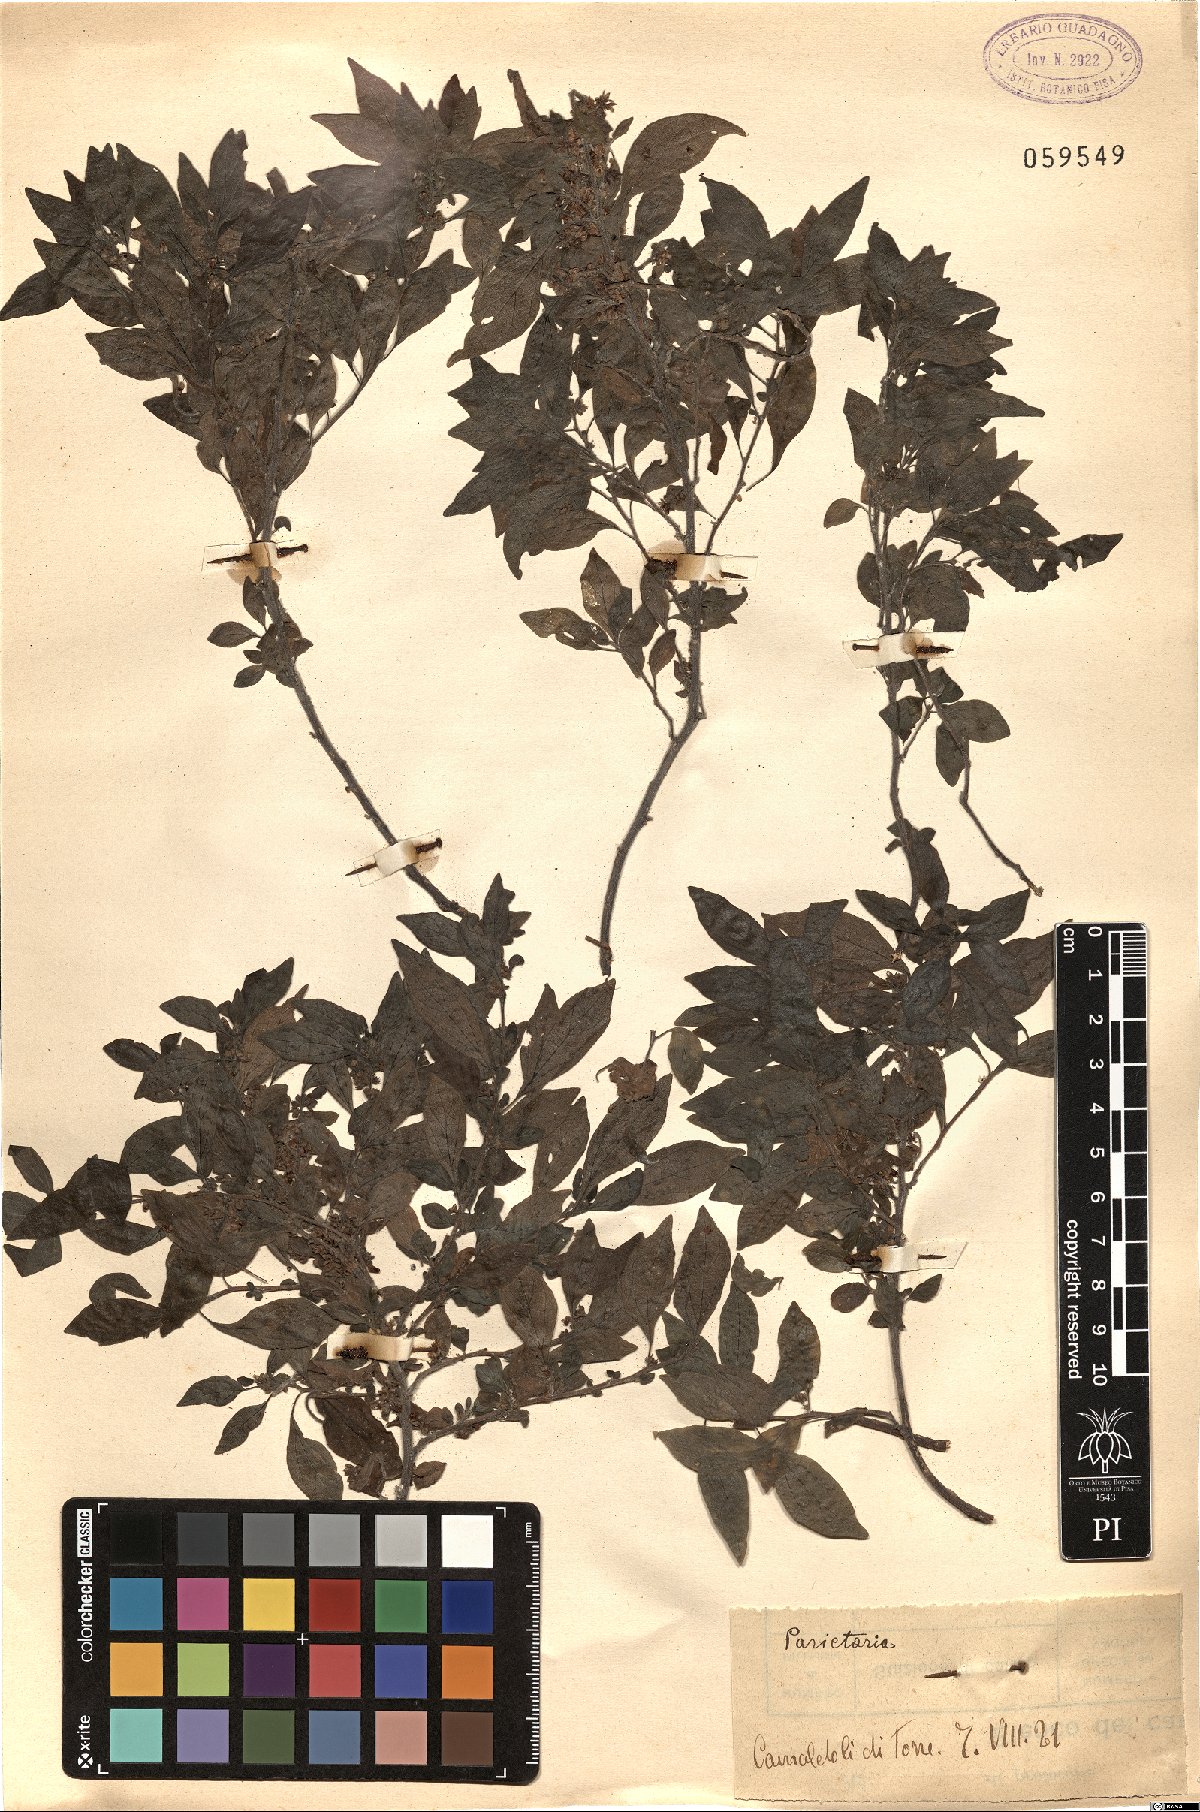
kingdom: Plantae
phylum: Tracheophyta
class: Magnoliopsida
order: Rosales
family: Urticaceae
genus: Parietaria
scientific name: Parietaria
